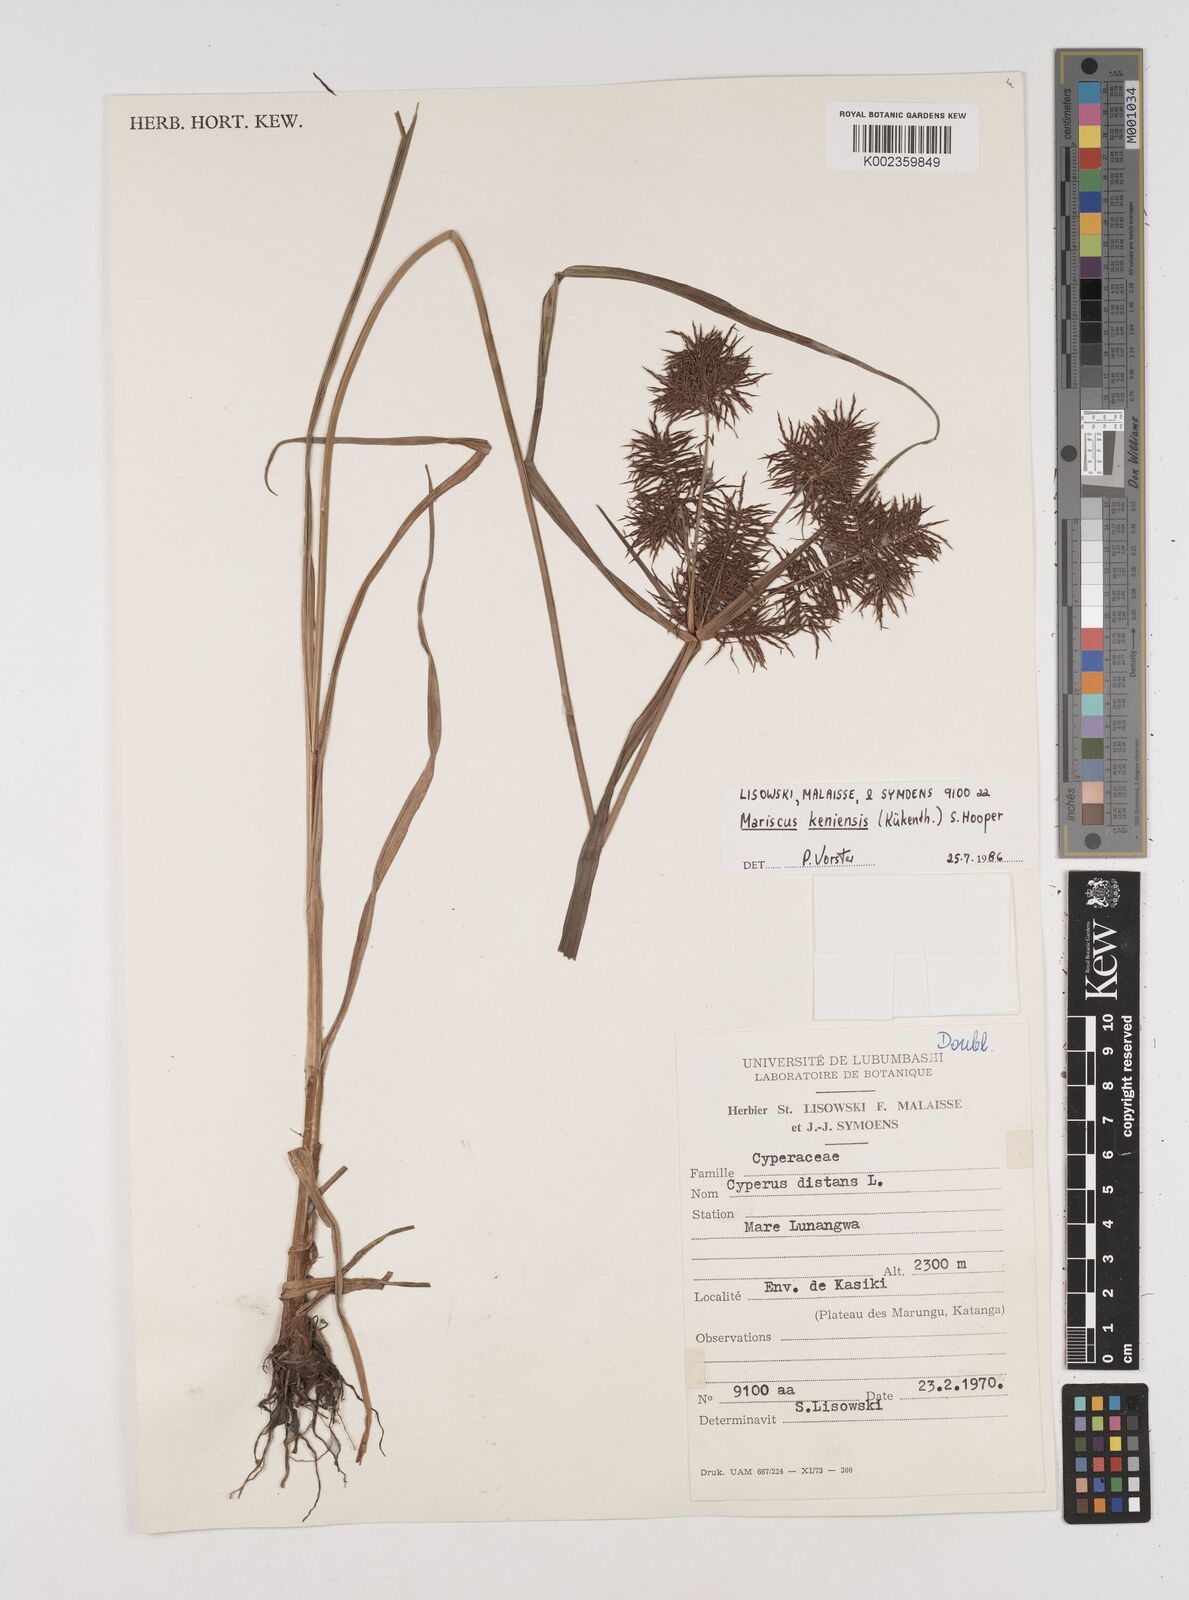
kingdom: Plantae
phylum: Tracheophyta
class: Liliopsida
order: Poales
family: Cyperaceae
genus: Cyperus
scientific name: Cyperus distans
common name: Slender cyperus
